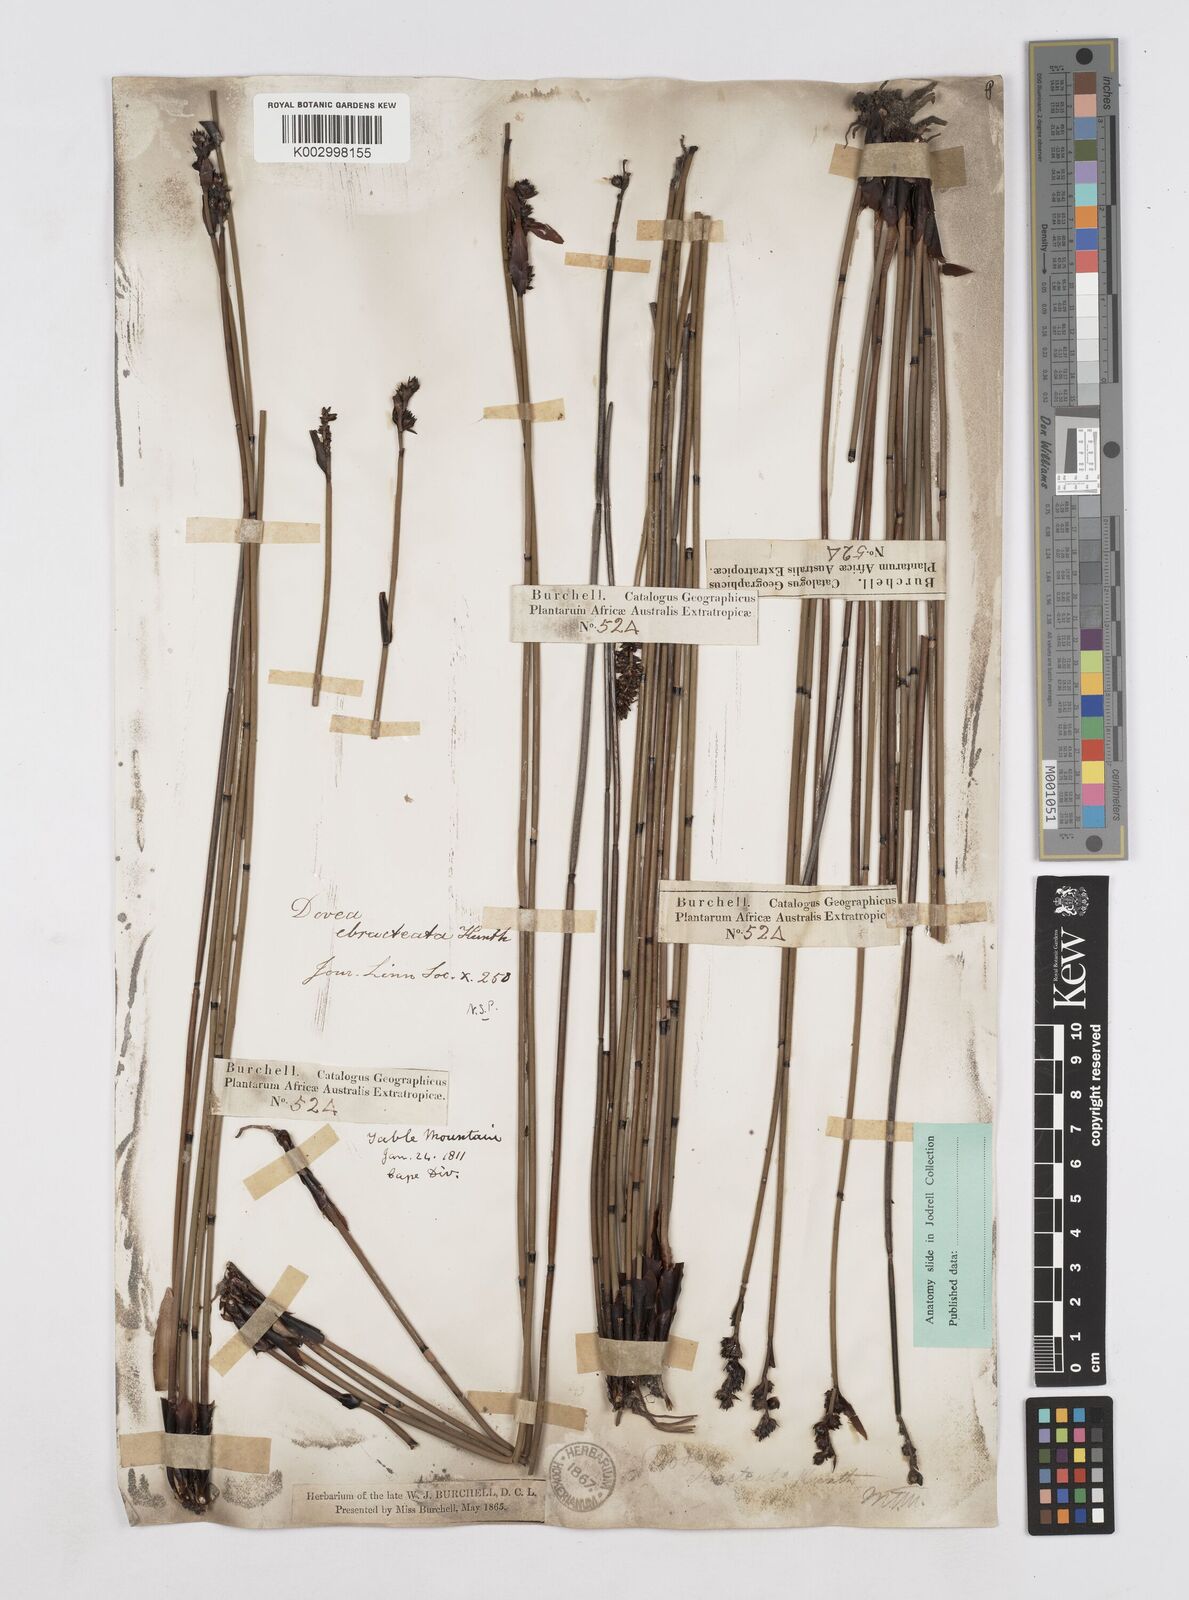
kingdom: Plantae
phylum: Tracheophyta
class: Liliopsida
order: Poales
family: Restionaceae
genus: Elegia
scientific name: Elegia hookeriana
